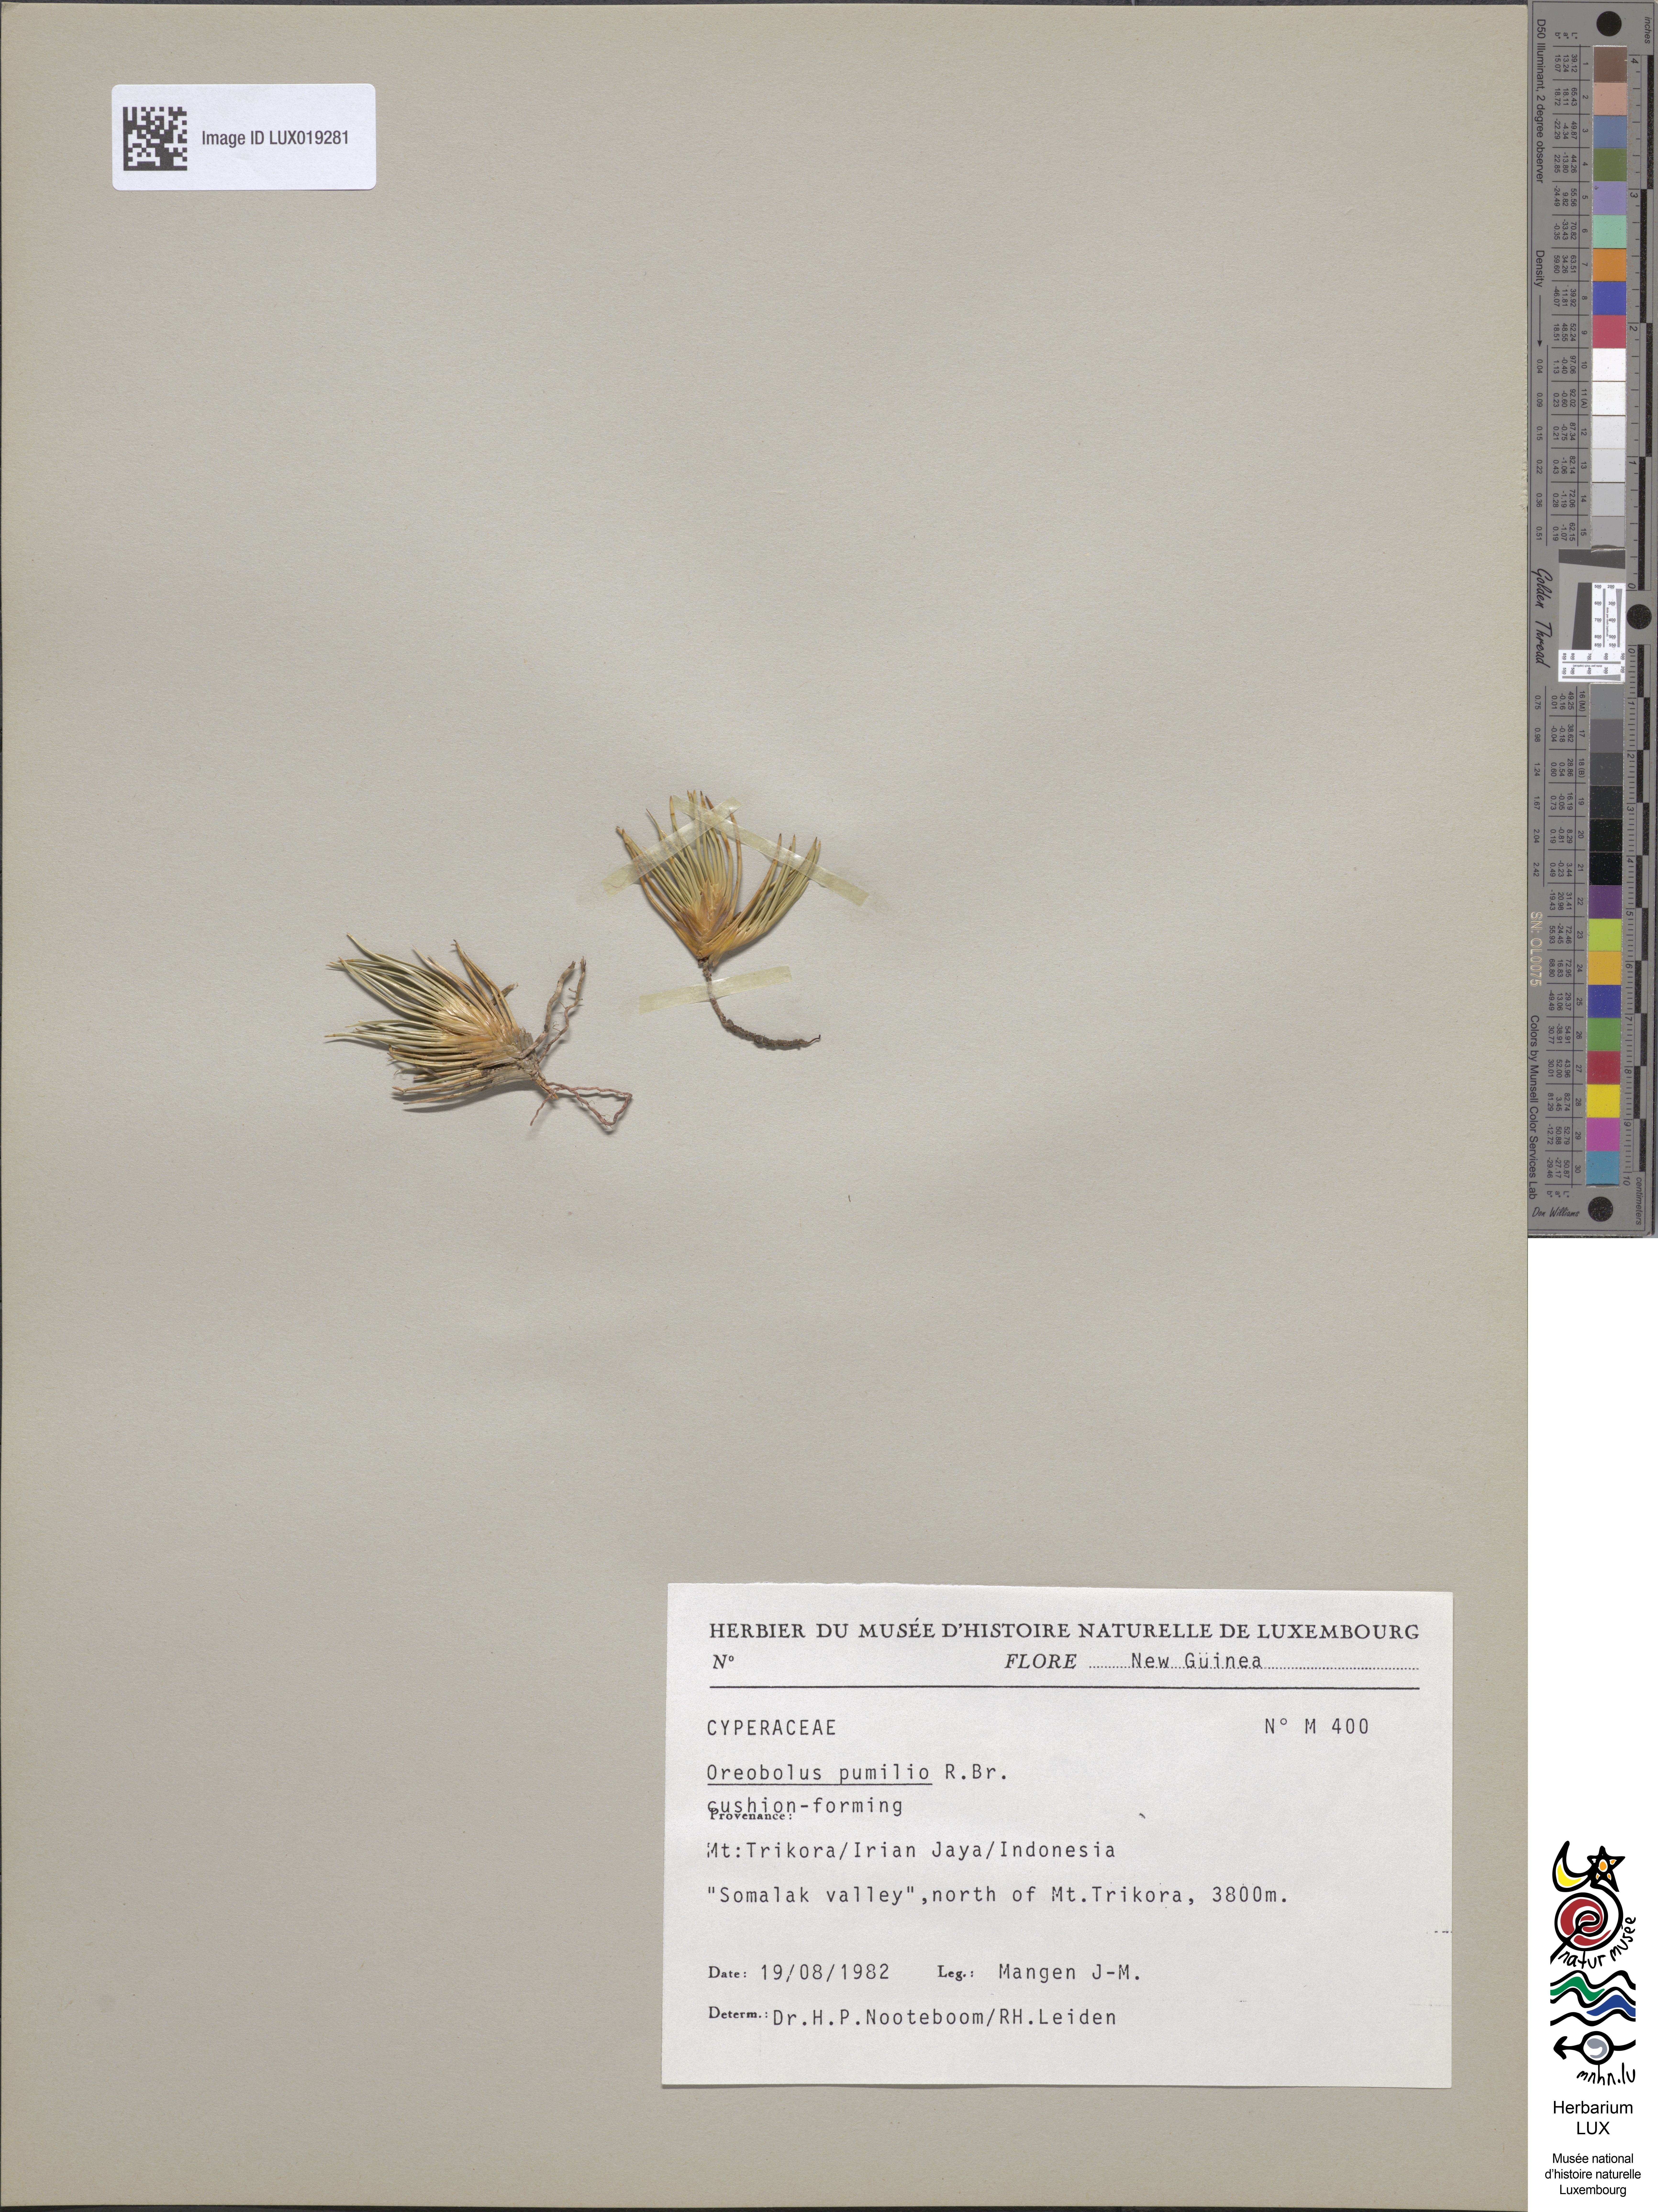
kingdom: Plantae
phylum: Tracheophyta
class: Liliopsida
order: Poales
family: Cyperaceae
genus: Oreobolus
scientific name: Oreobolus pumilio
